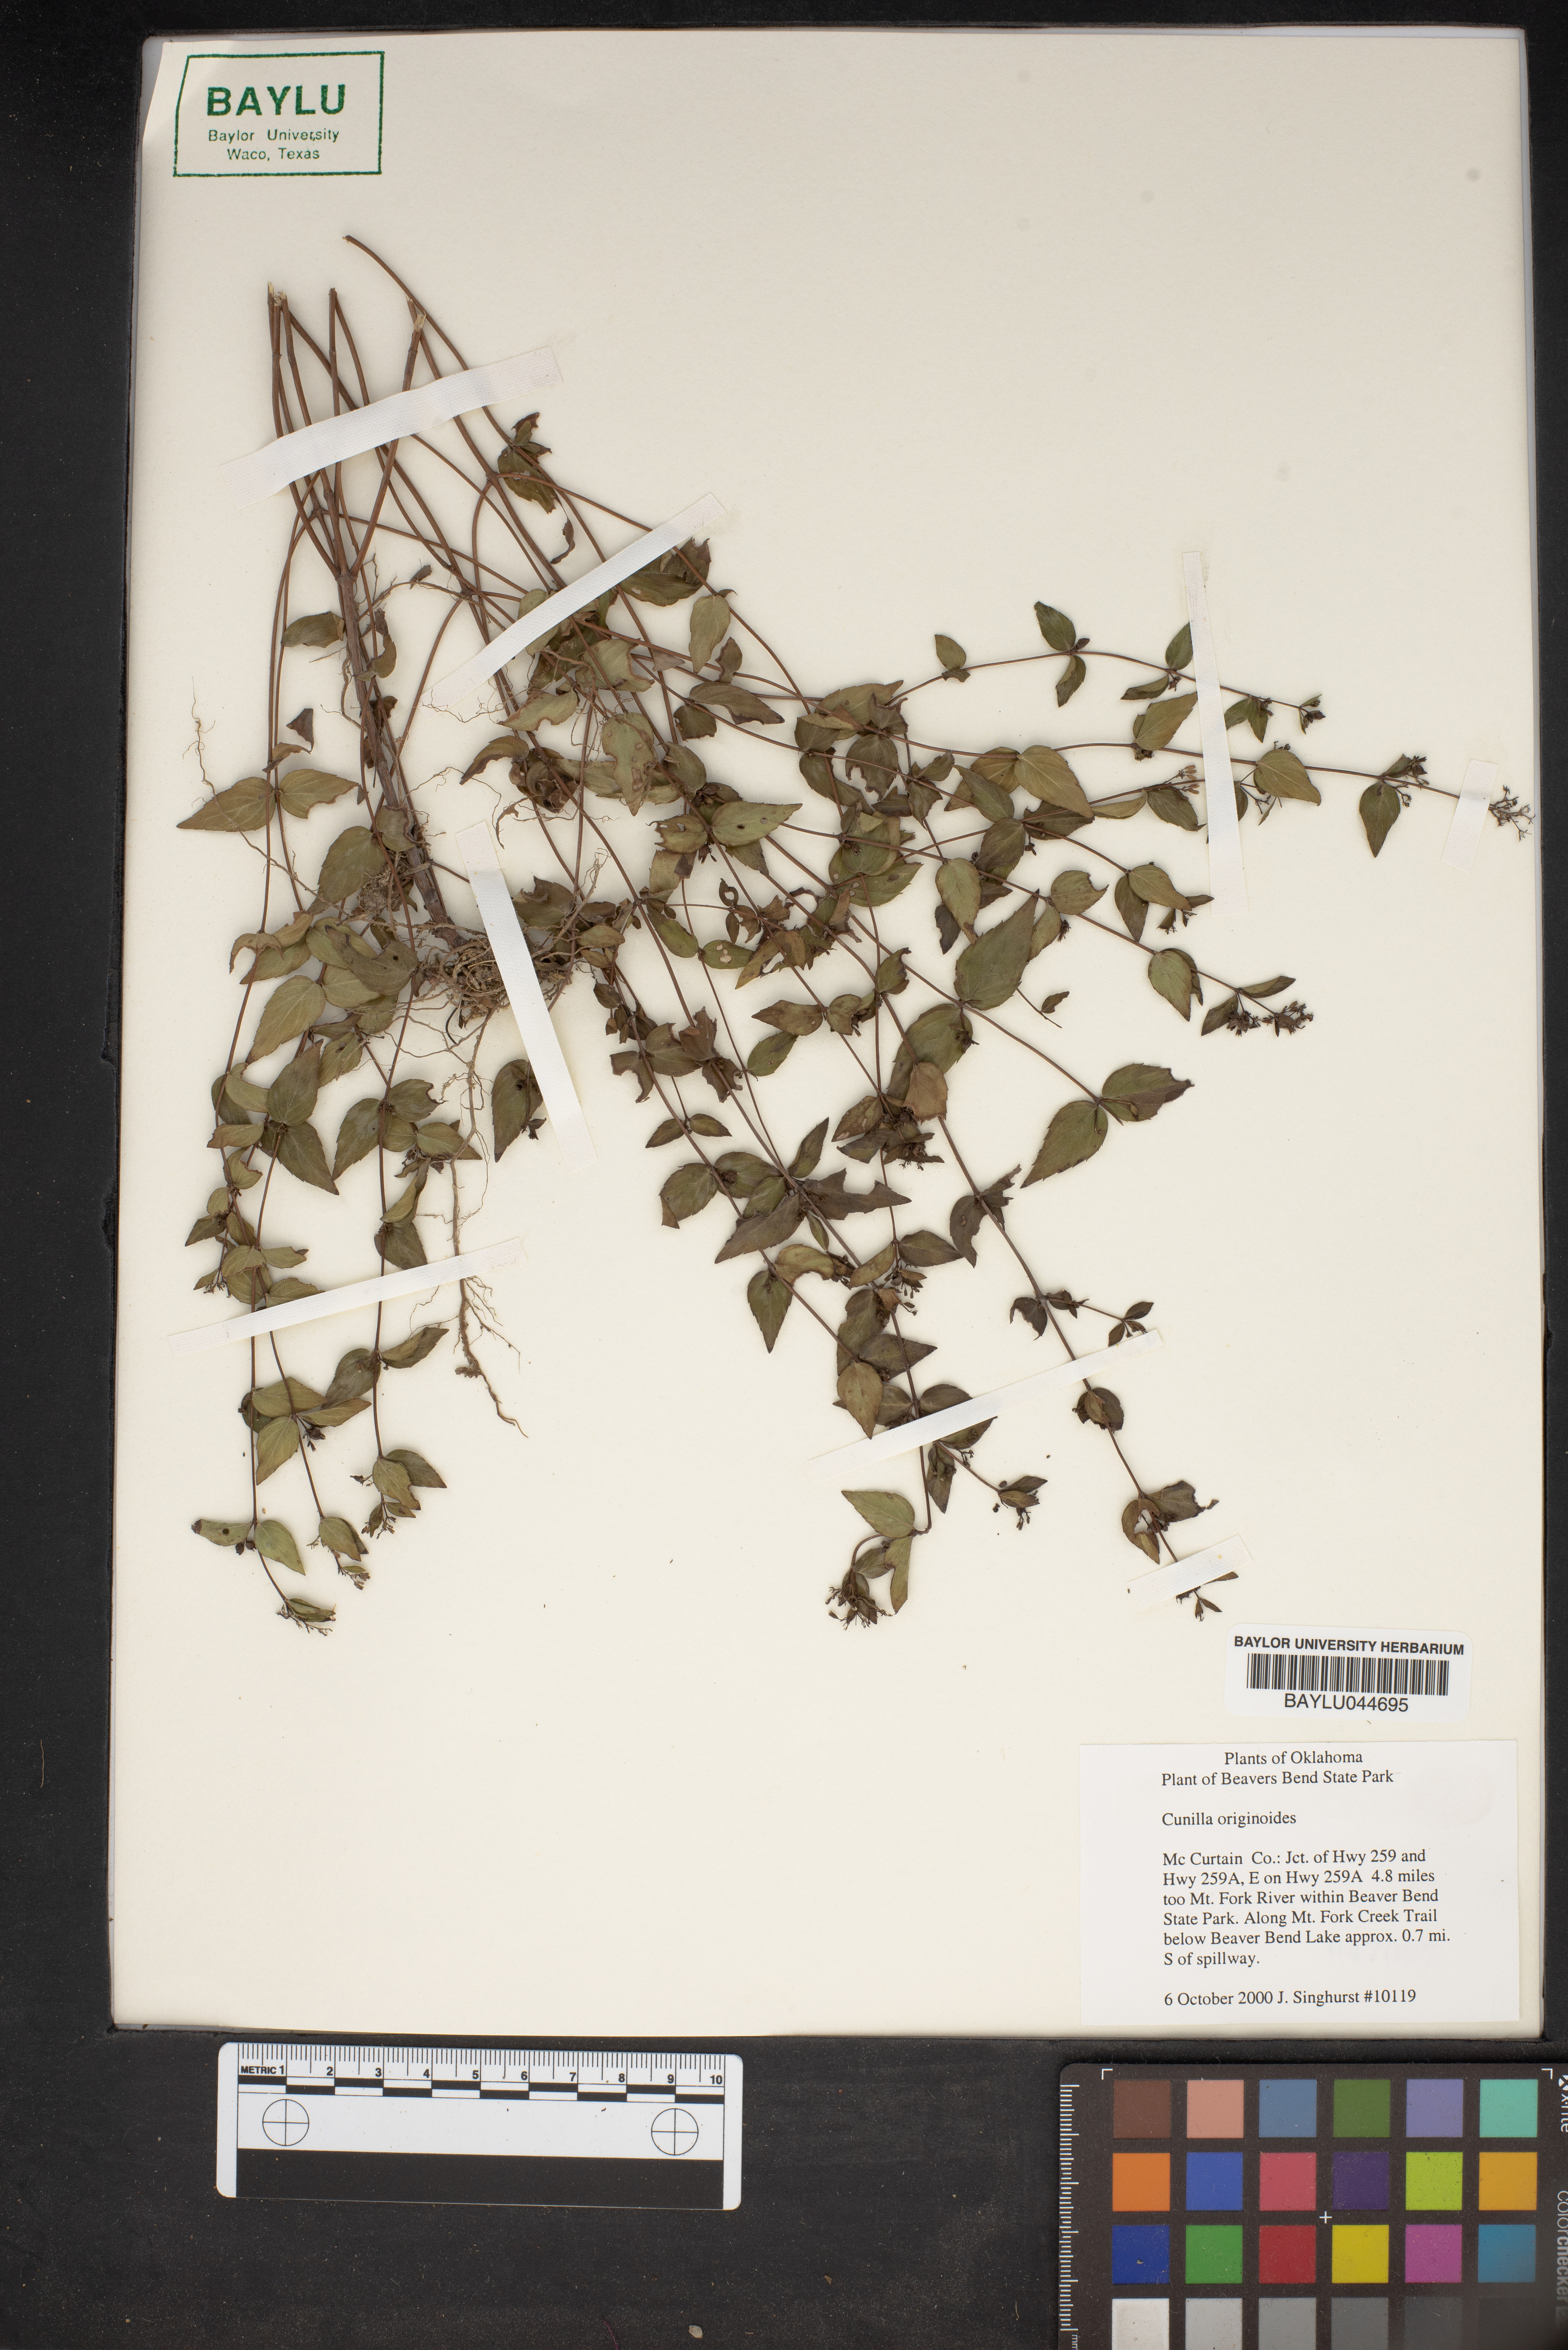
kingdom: Plantae
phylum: Tracheophyta
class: Magnoliopsida
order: Lamiales
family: Lamiaceae
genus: Cunila
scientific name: Cunila origanoides
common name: American dittany
